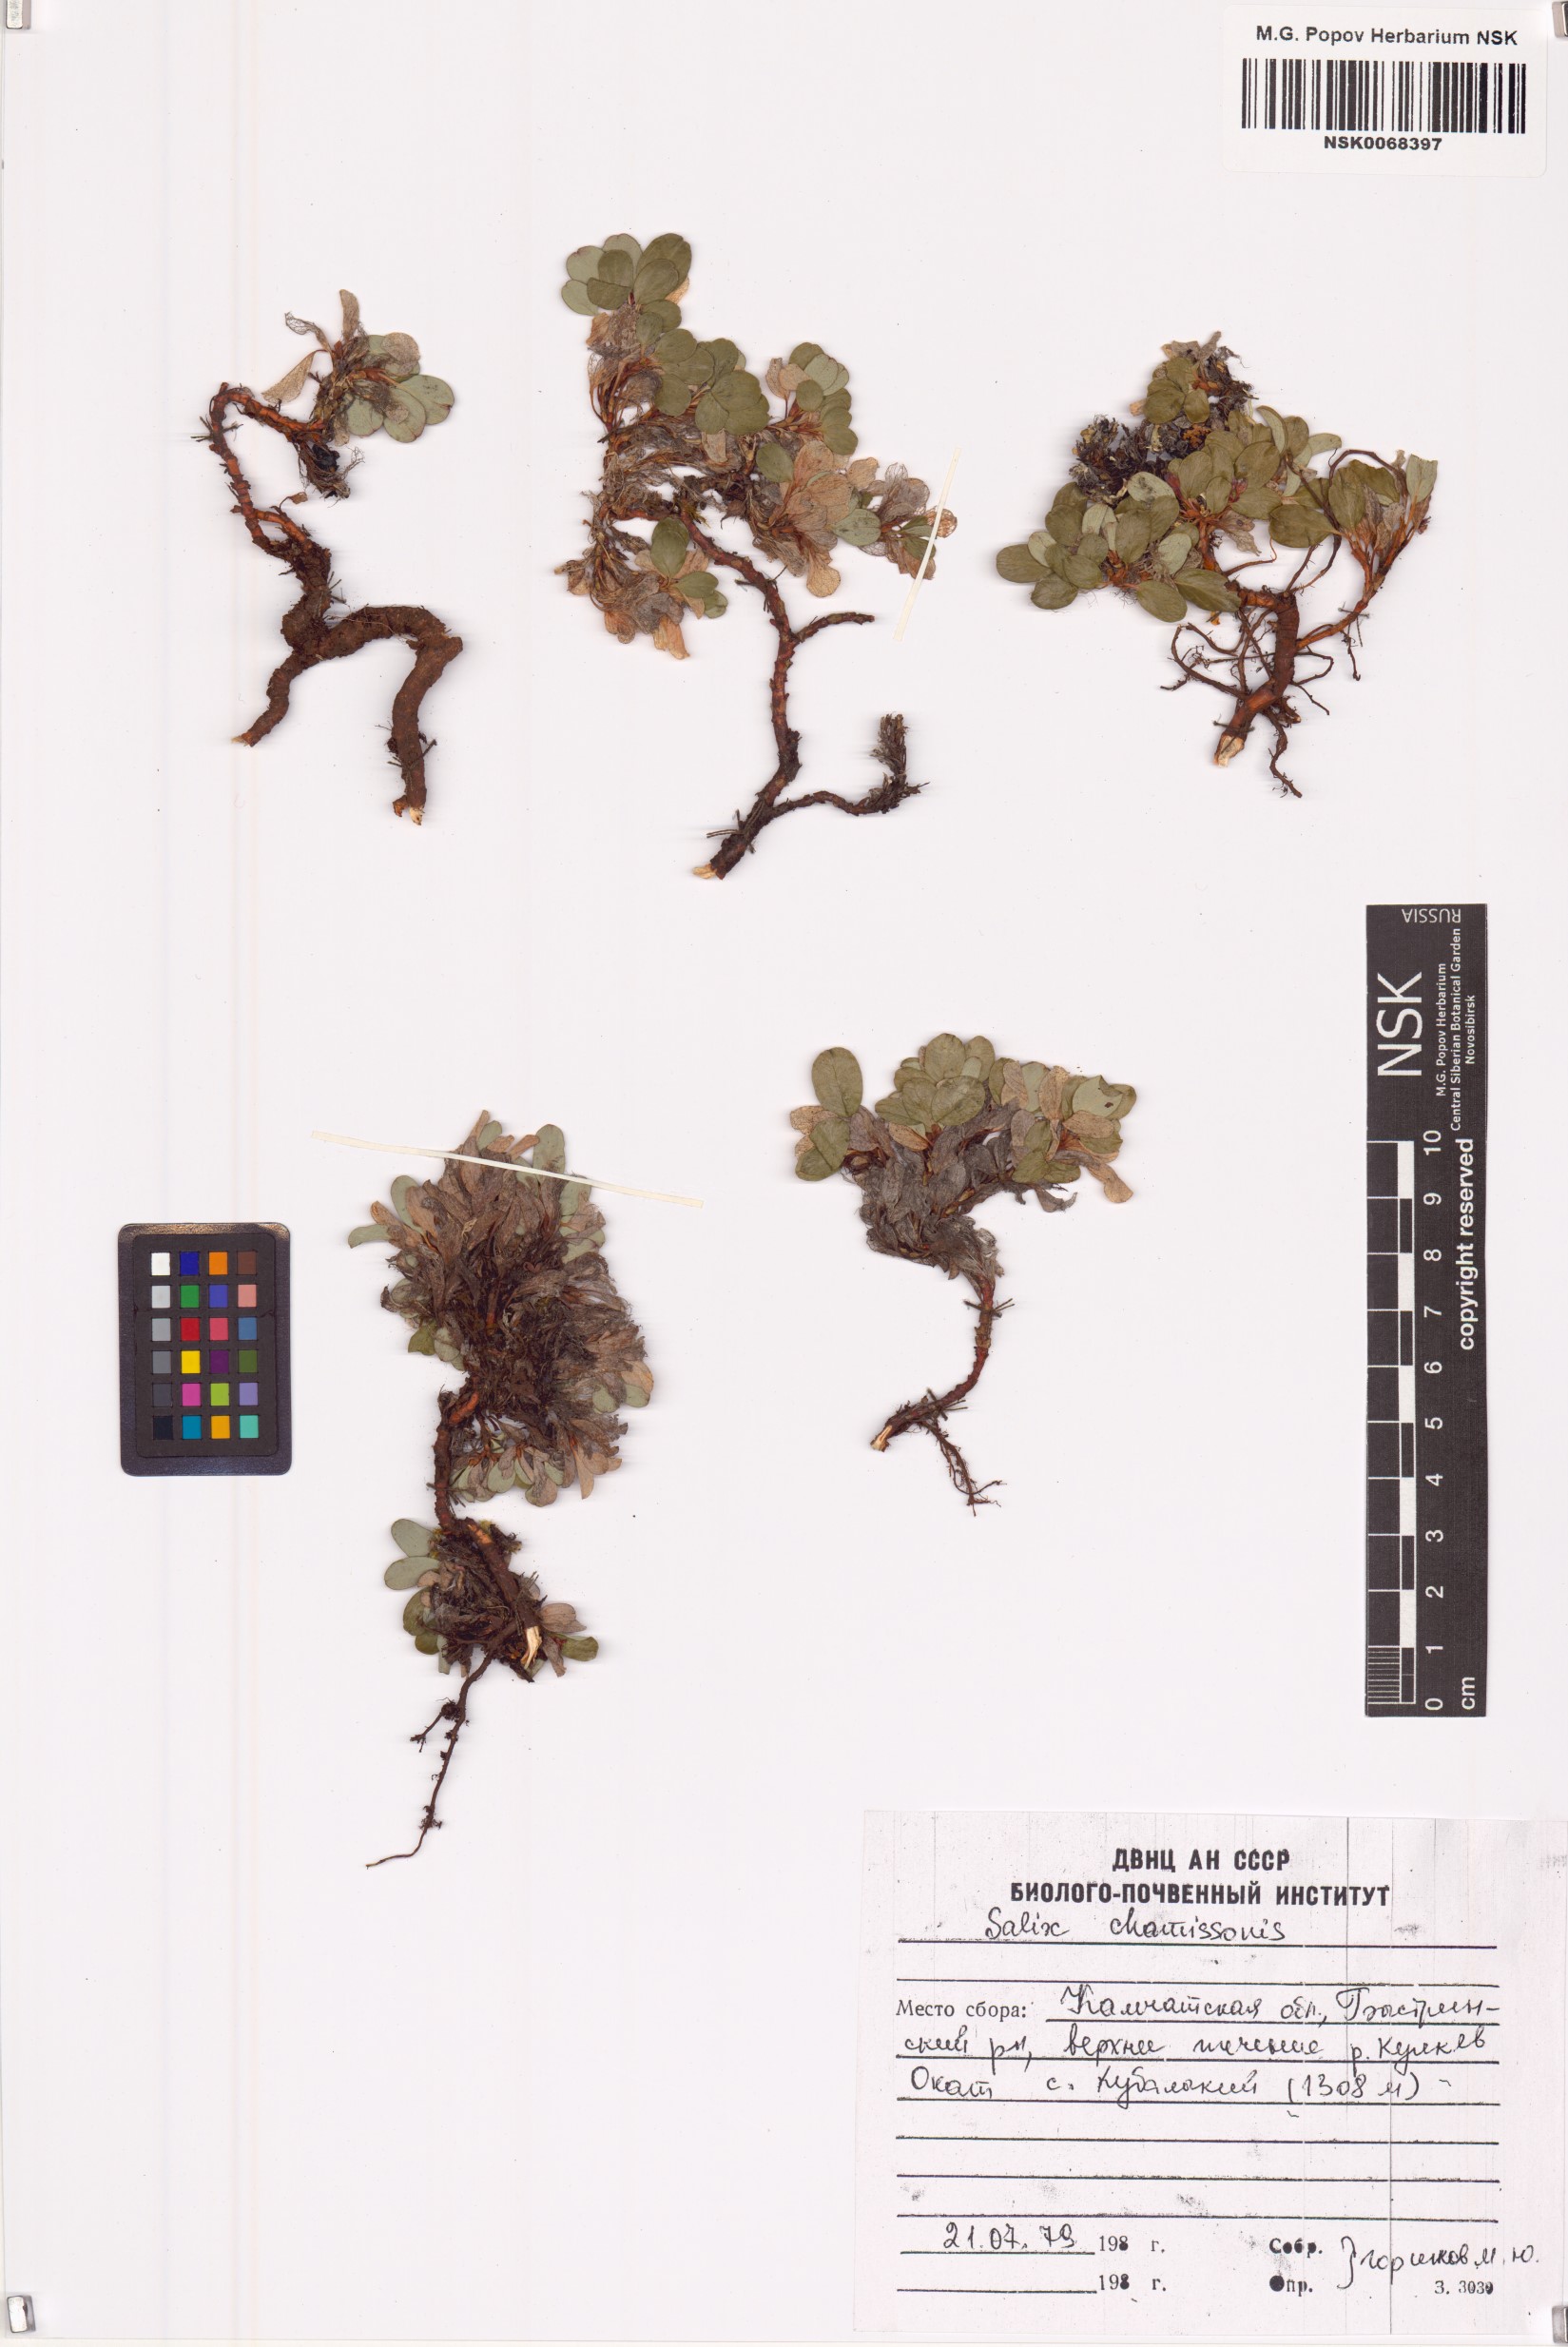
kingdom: Plantae
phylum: Tracheophyta
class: Magnoliopsida
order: Malpighiales
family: Salicaceae
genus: Salix
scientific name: Salix chamissonis
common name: Chamisso willow
